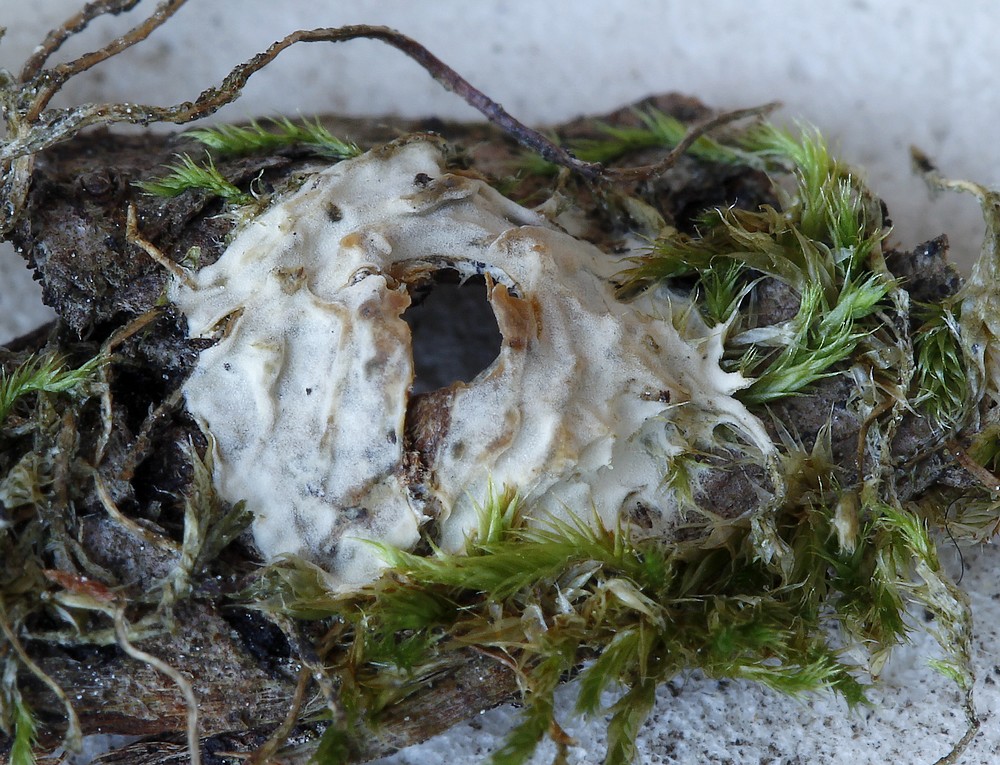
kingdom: Fungi
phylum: Basidiomycota
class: Agaricomycetes
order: Agaricales
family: Radulomycetaceae
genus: Radulomyces
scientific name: Radulomyces confluens
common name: glat naftalinskind
